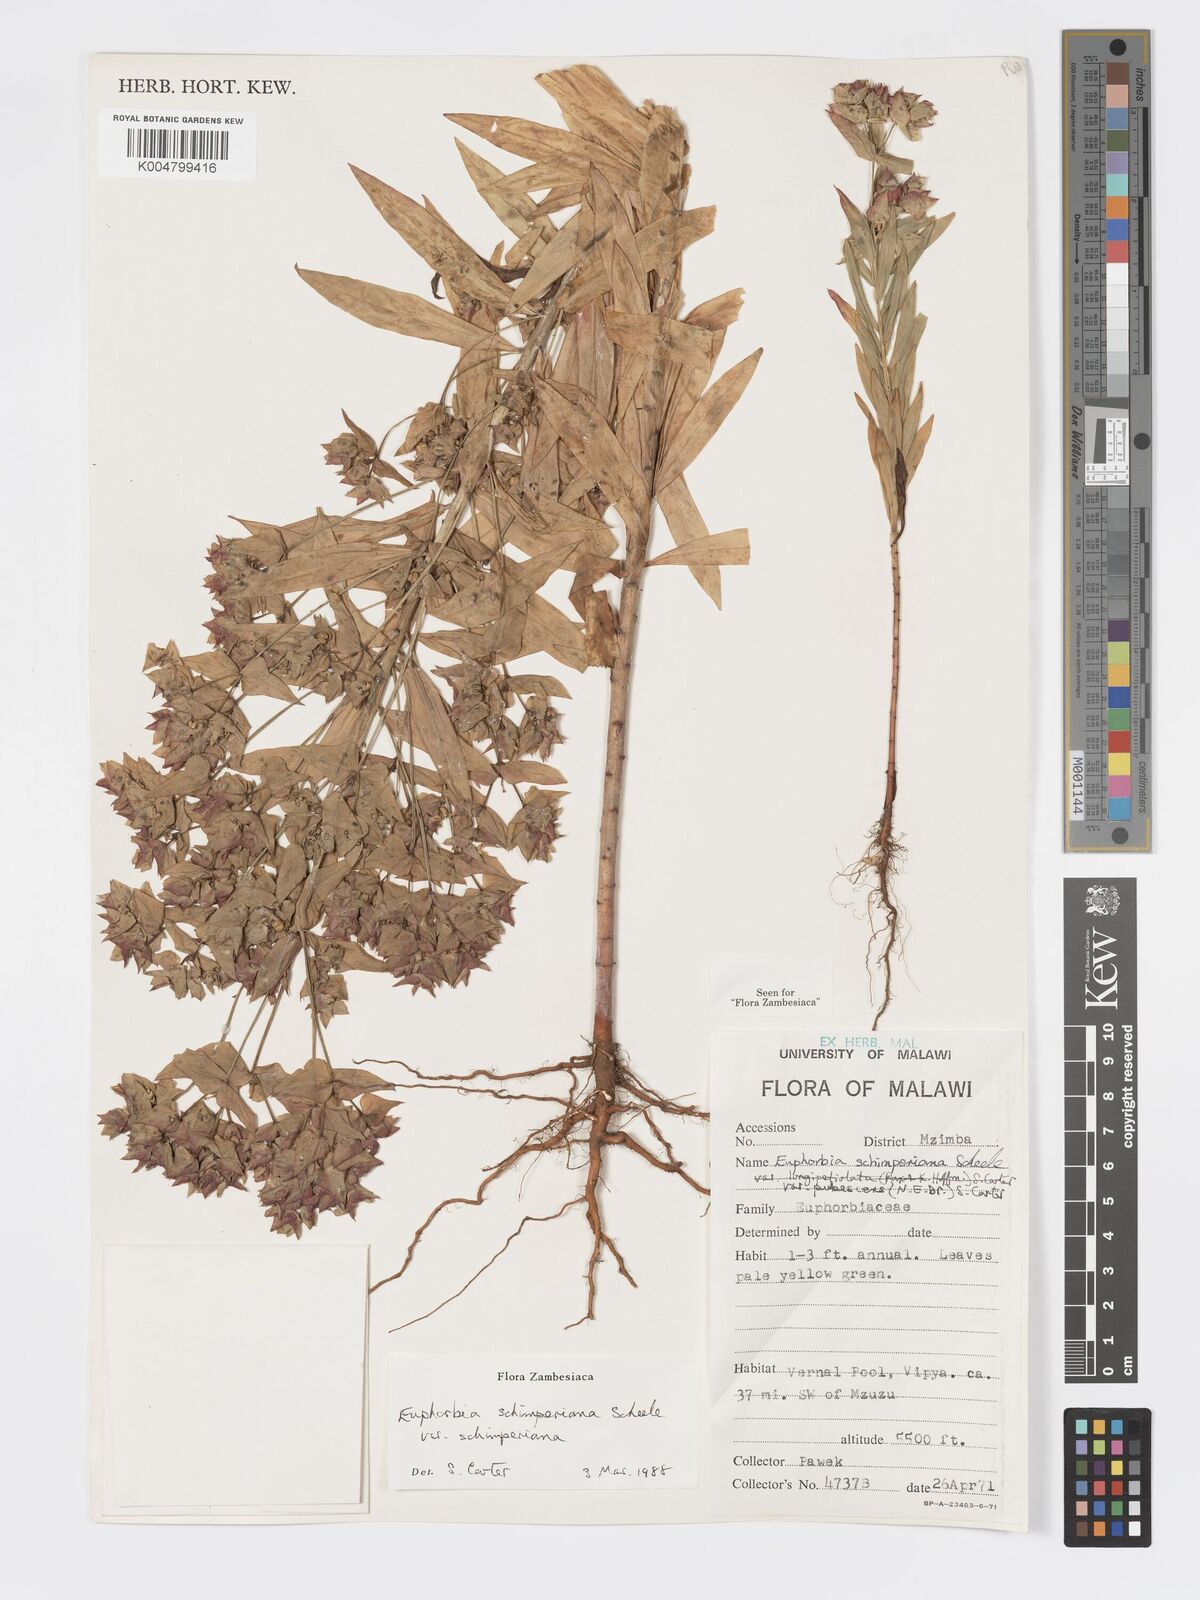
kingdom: Plantae
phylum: Tracheophyta
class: Magnoliopsida
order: Malpighiales
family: Euphorbiaceae
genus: Euphorbia
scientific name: Euphorbia schimperiana
